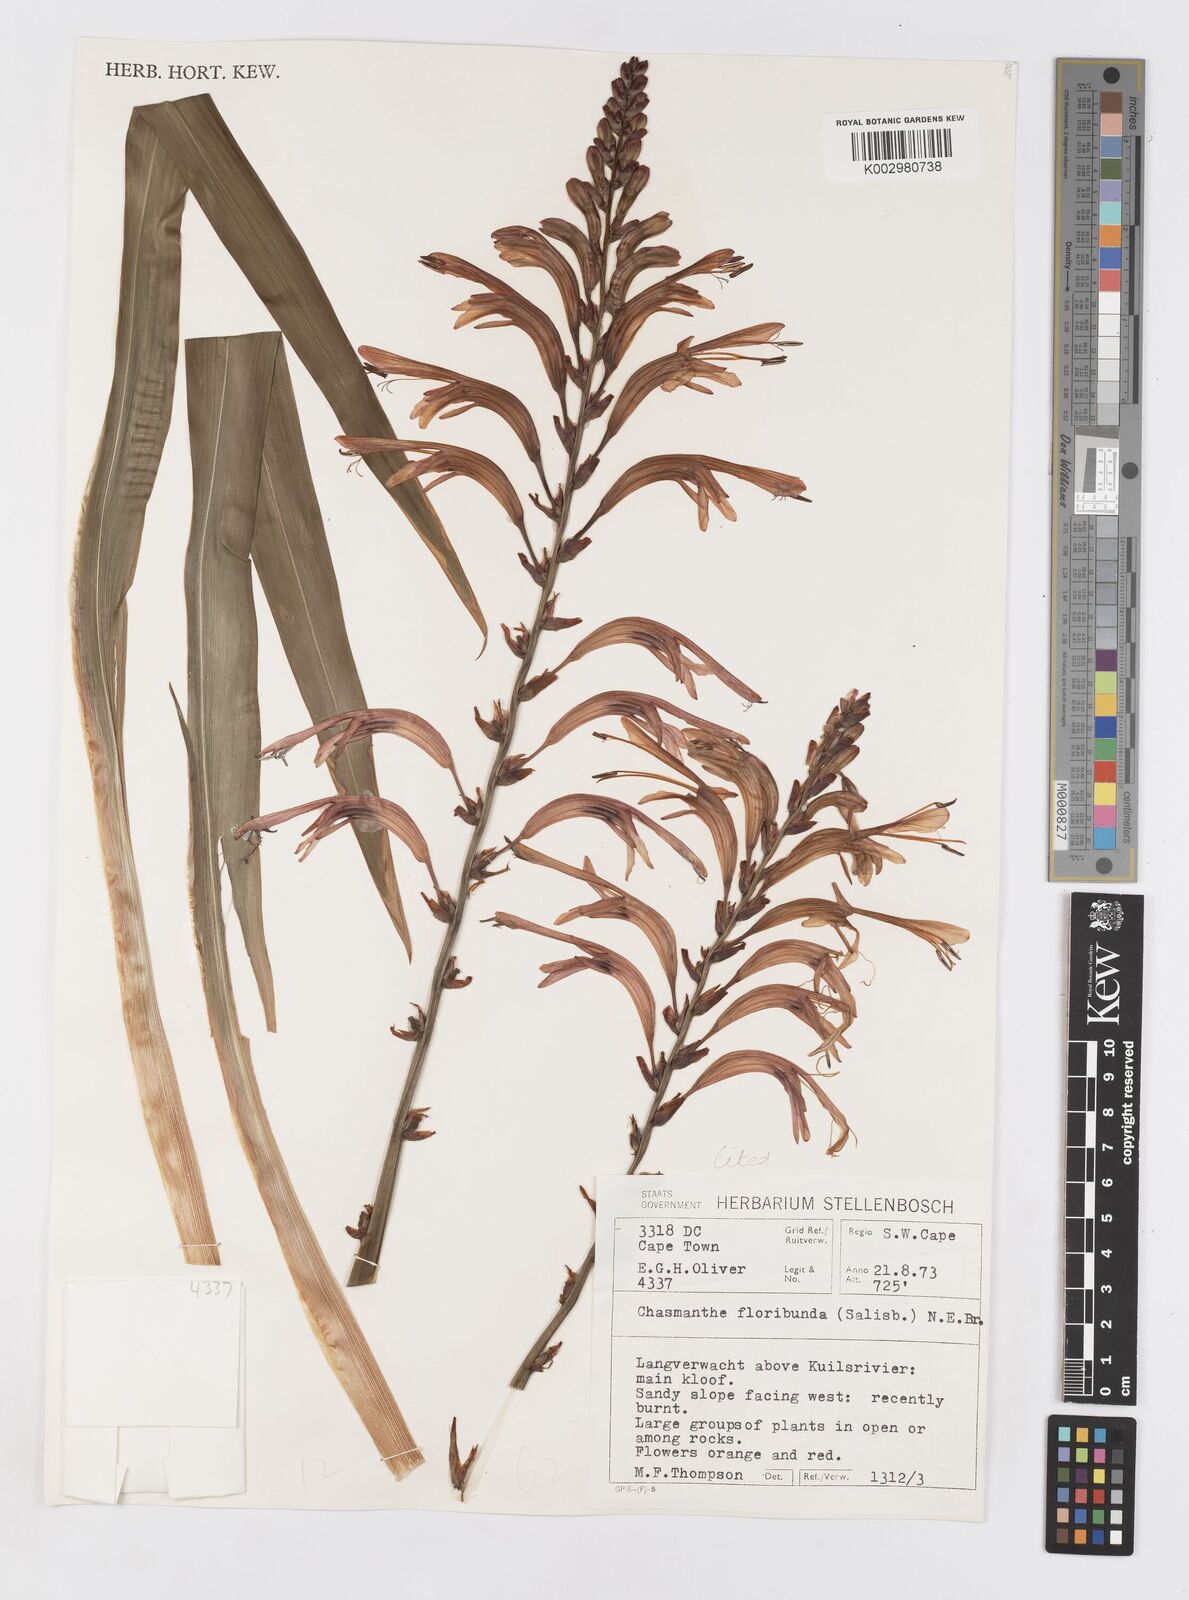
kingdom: Plantae
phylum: Tracheophyta
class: Liliopsida
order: Asparagales
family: Iridaceae
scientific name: Iridaceae
